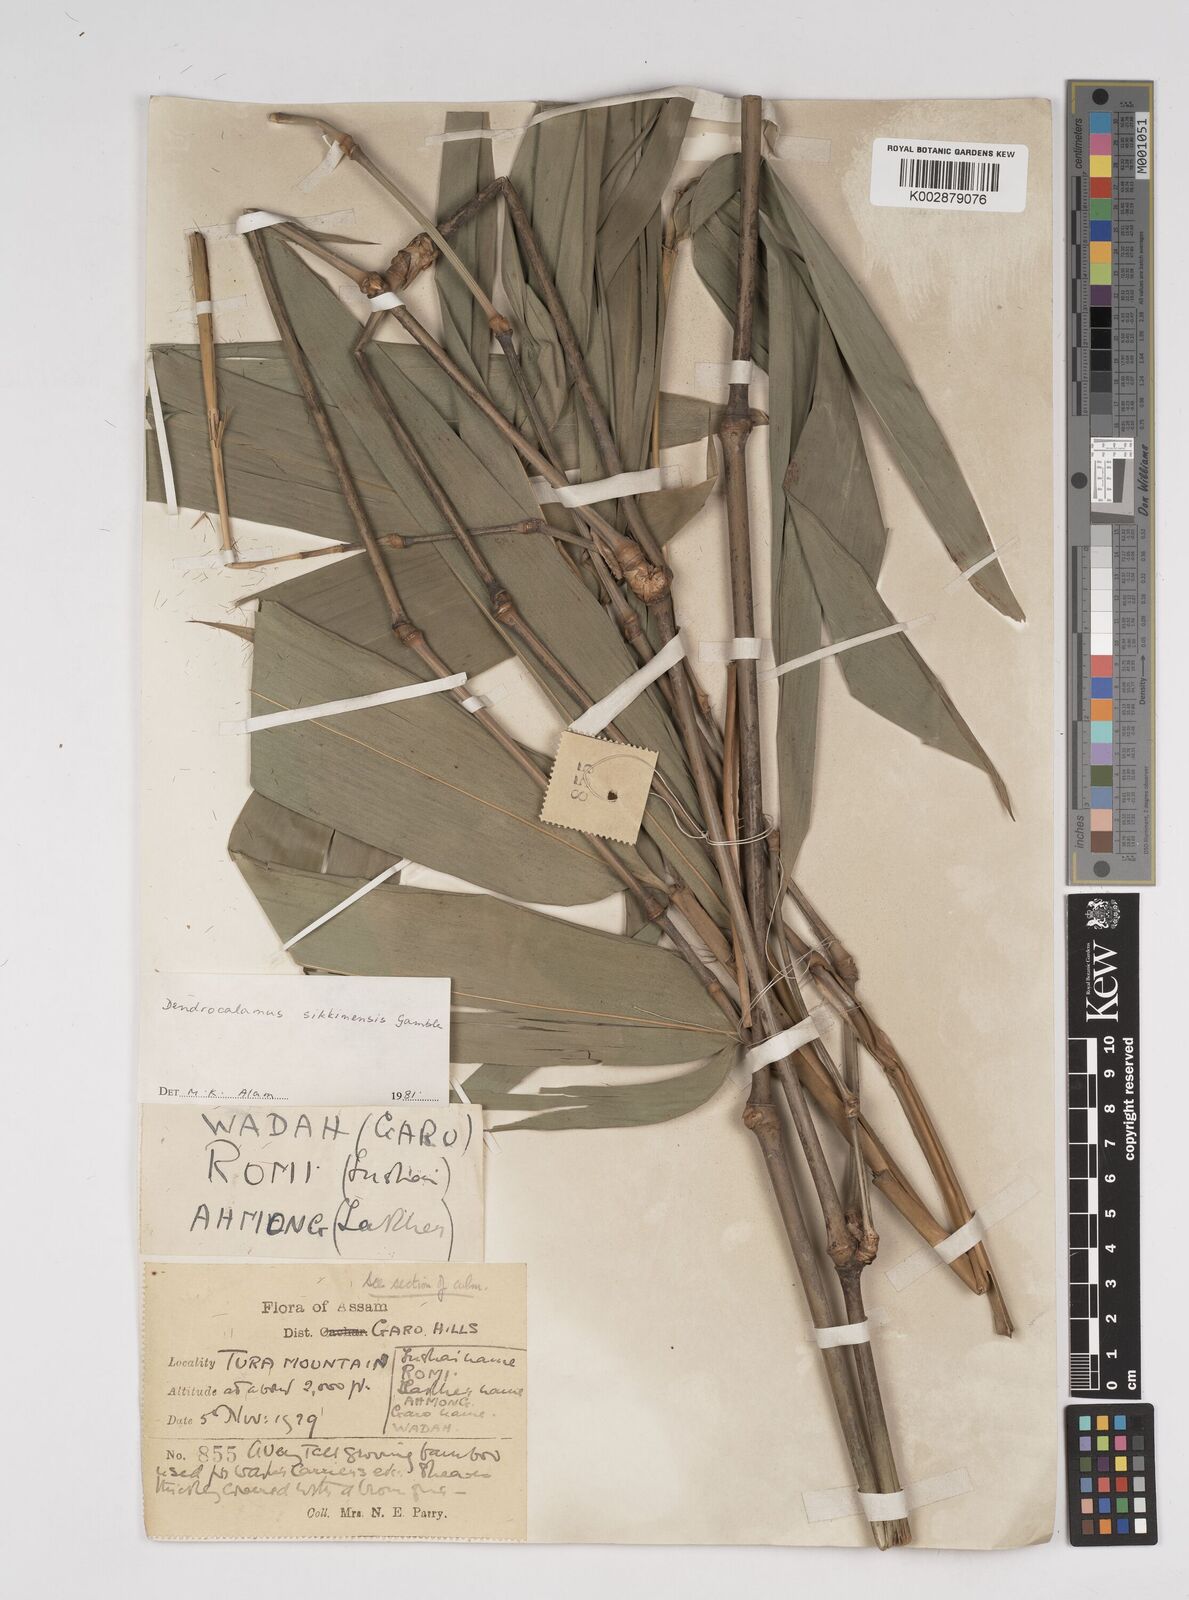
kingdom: Plantae
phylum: Tracheophyta
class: Liliopsida
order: Poales
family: Poaceae
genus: Dendrocalamus
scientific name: Dendrocalamus sikkimensis
